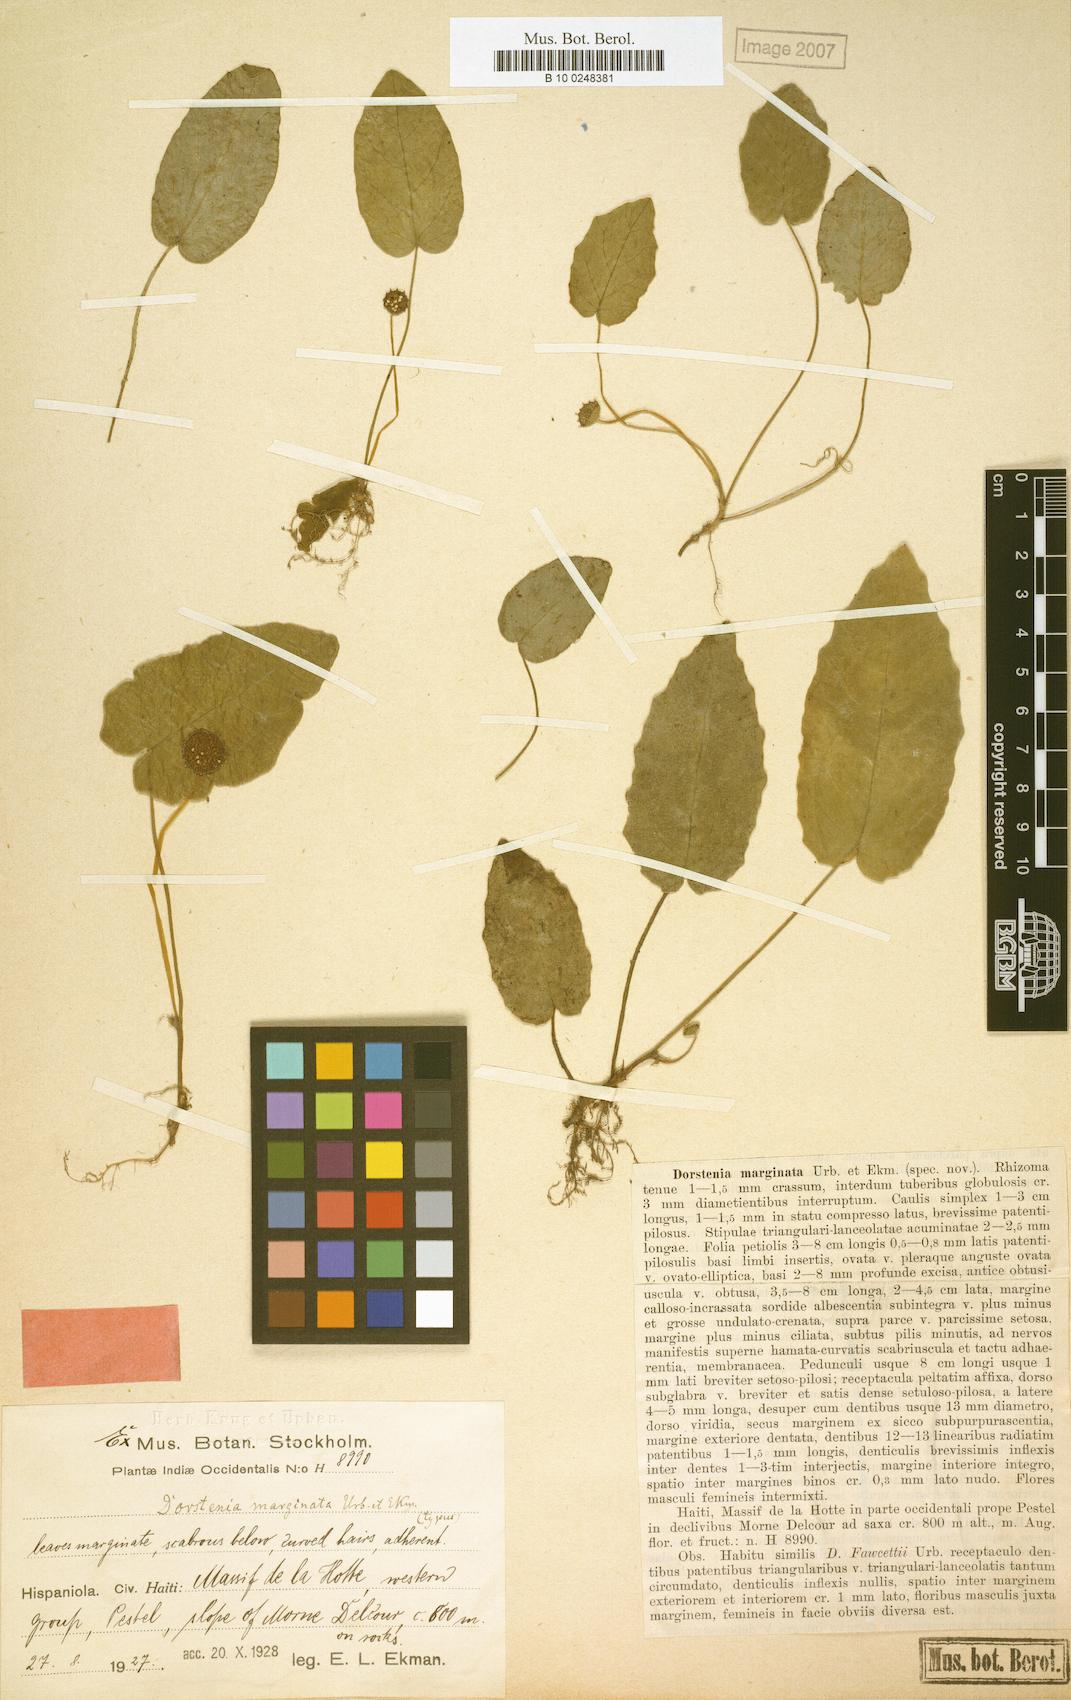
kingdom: Plantae
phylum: Tracheophyta
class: Magnoliopsida
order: Rosales
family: Moraceae
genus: Dorstenia
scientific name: Dorstenia fawcettii
